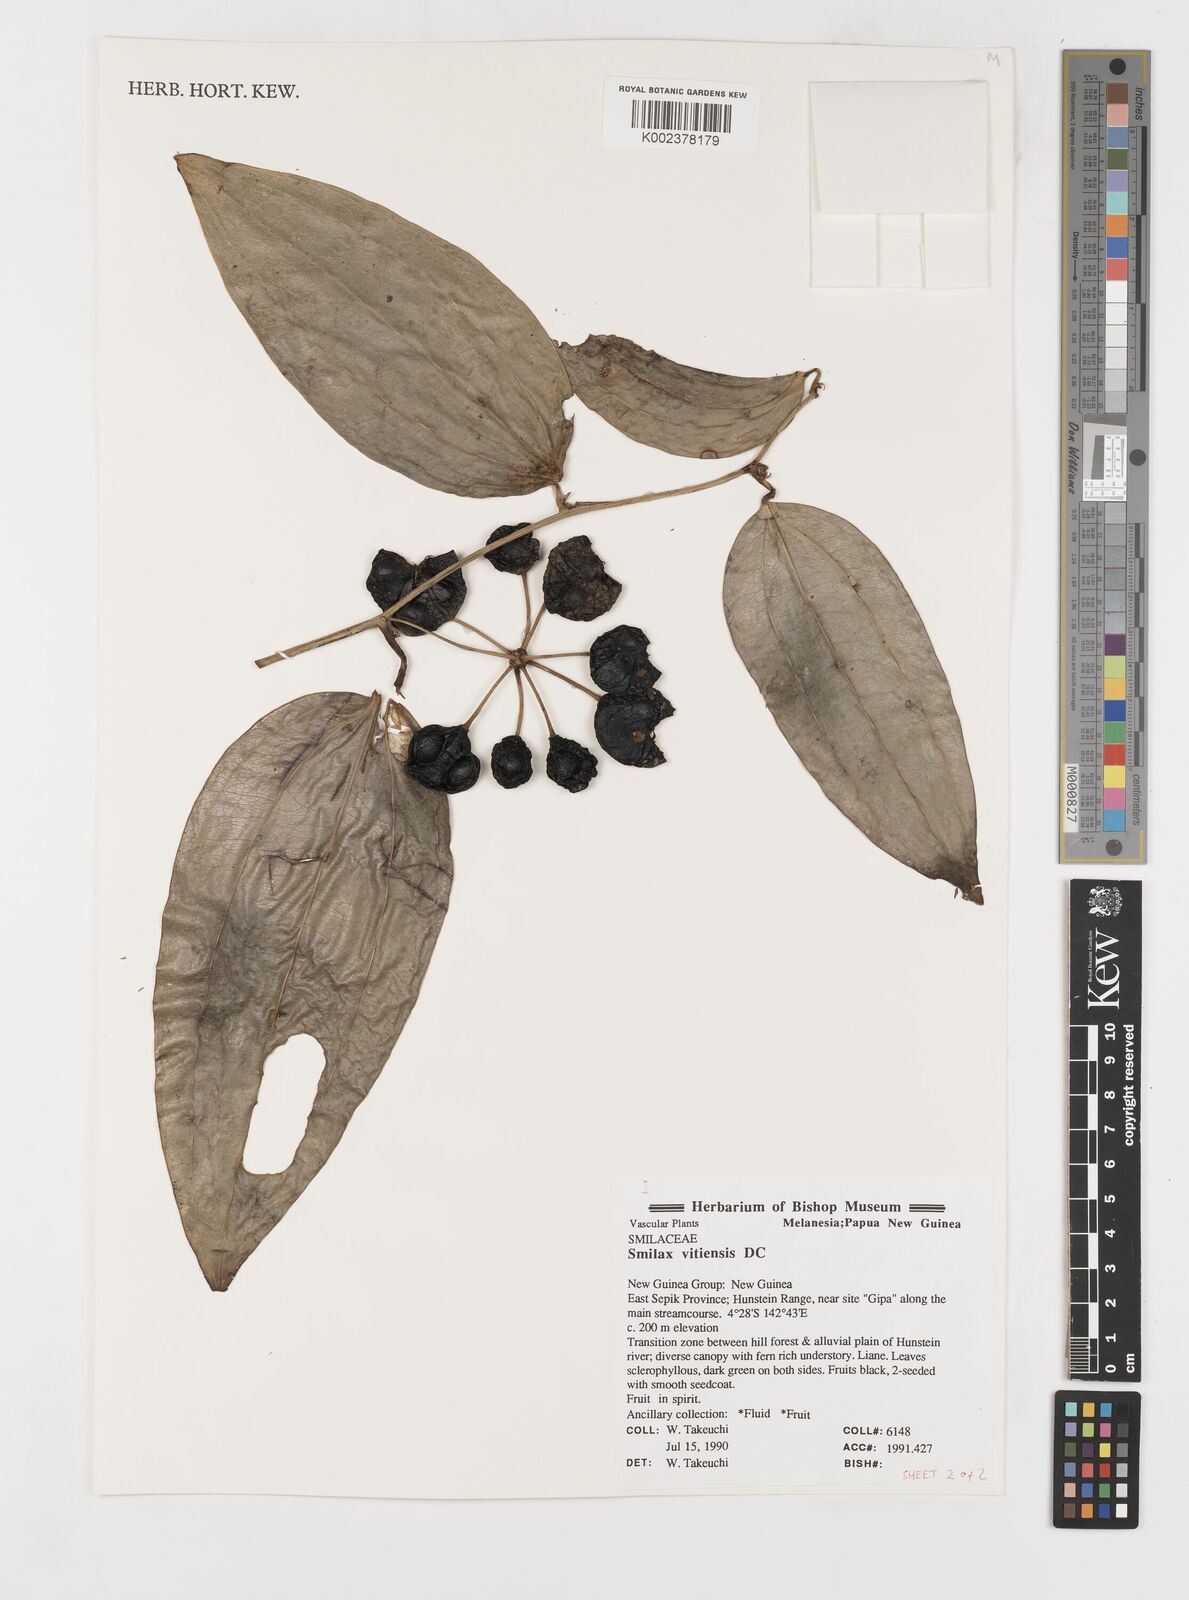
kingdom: Plantae
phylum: Tracheophyta
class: Liliopsida
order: Liliales
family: Smilacaceae
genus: Smilax
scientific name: Smilax vitiensis
